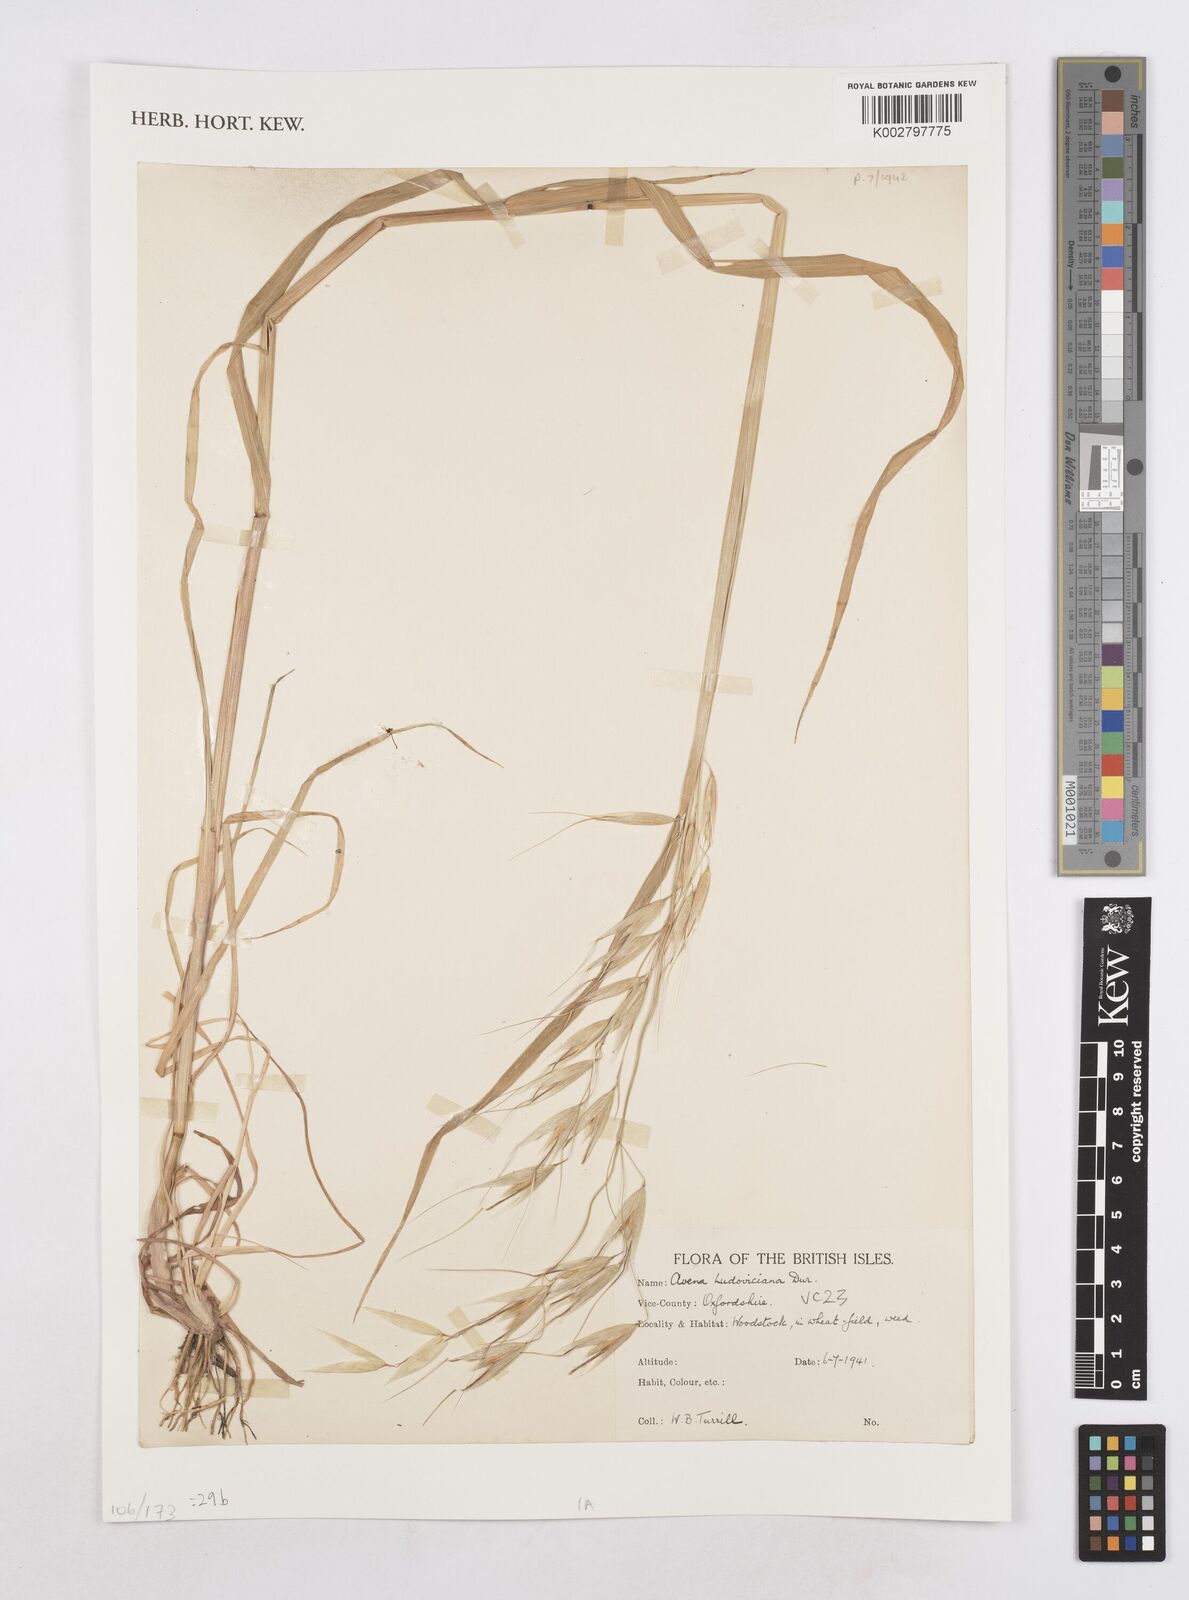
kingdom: Plantae
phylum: Tracheophyta
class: Liliopsida
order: Poales
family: Poaceae
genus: Avena
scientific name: Avena sterilis
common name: Animated oat
